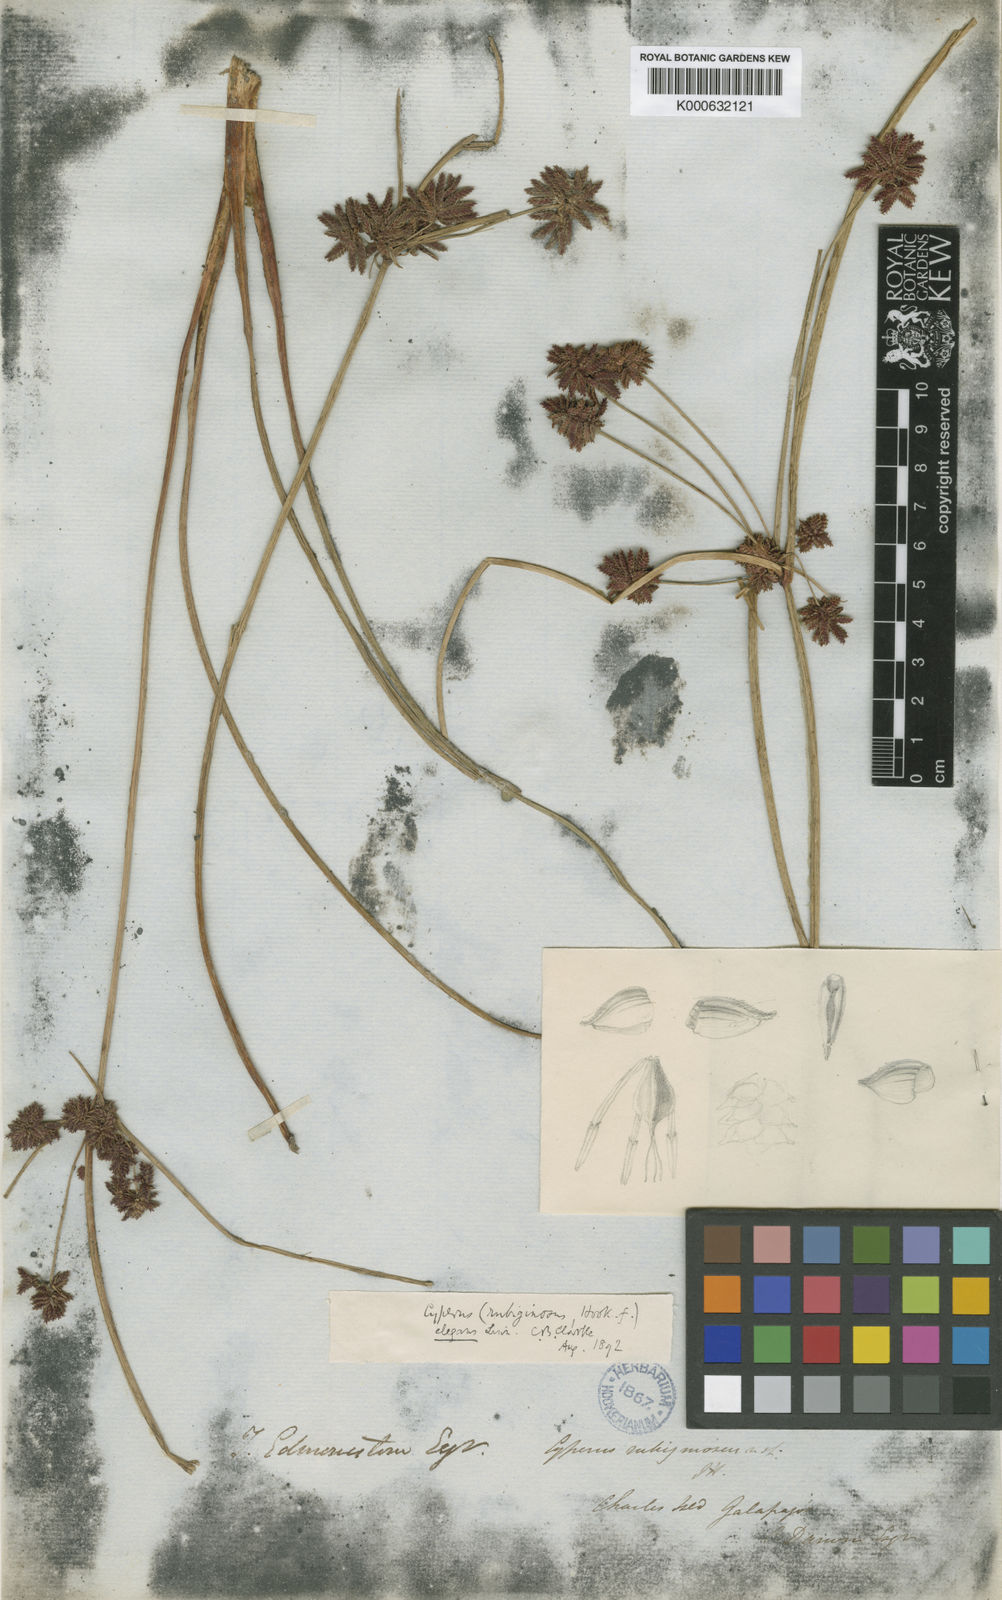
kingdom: Plantae
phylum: Tracheophyta
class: Liliopsida
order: Poales
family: Cyperaceae
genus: Cyperus
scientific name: Cyperus elegans
